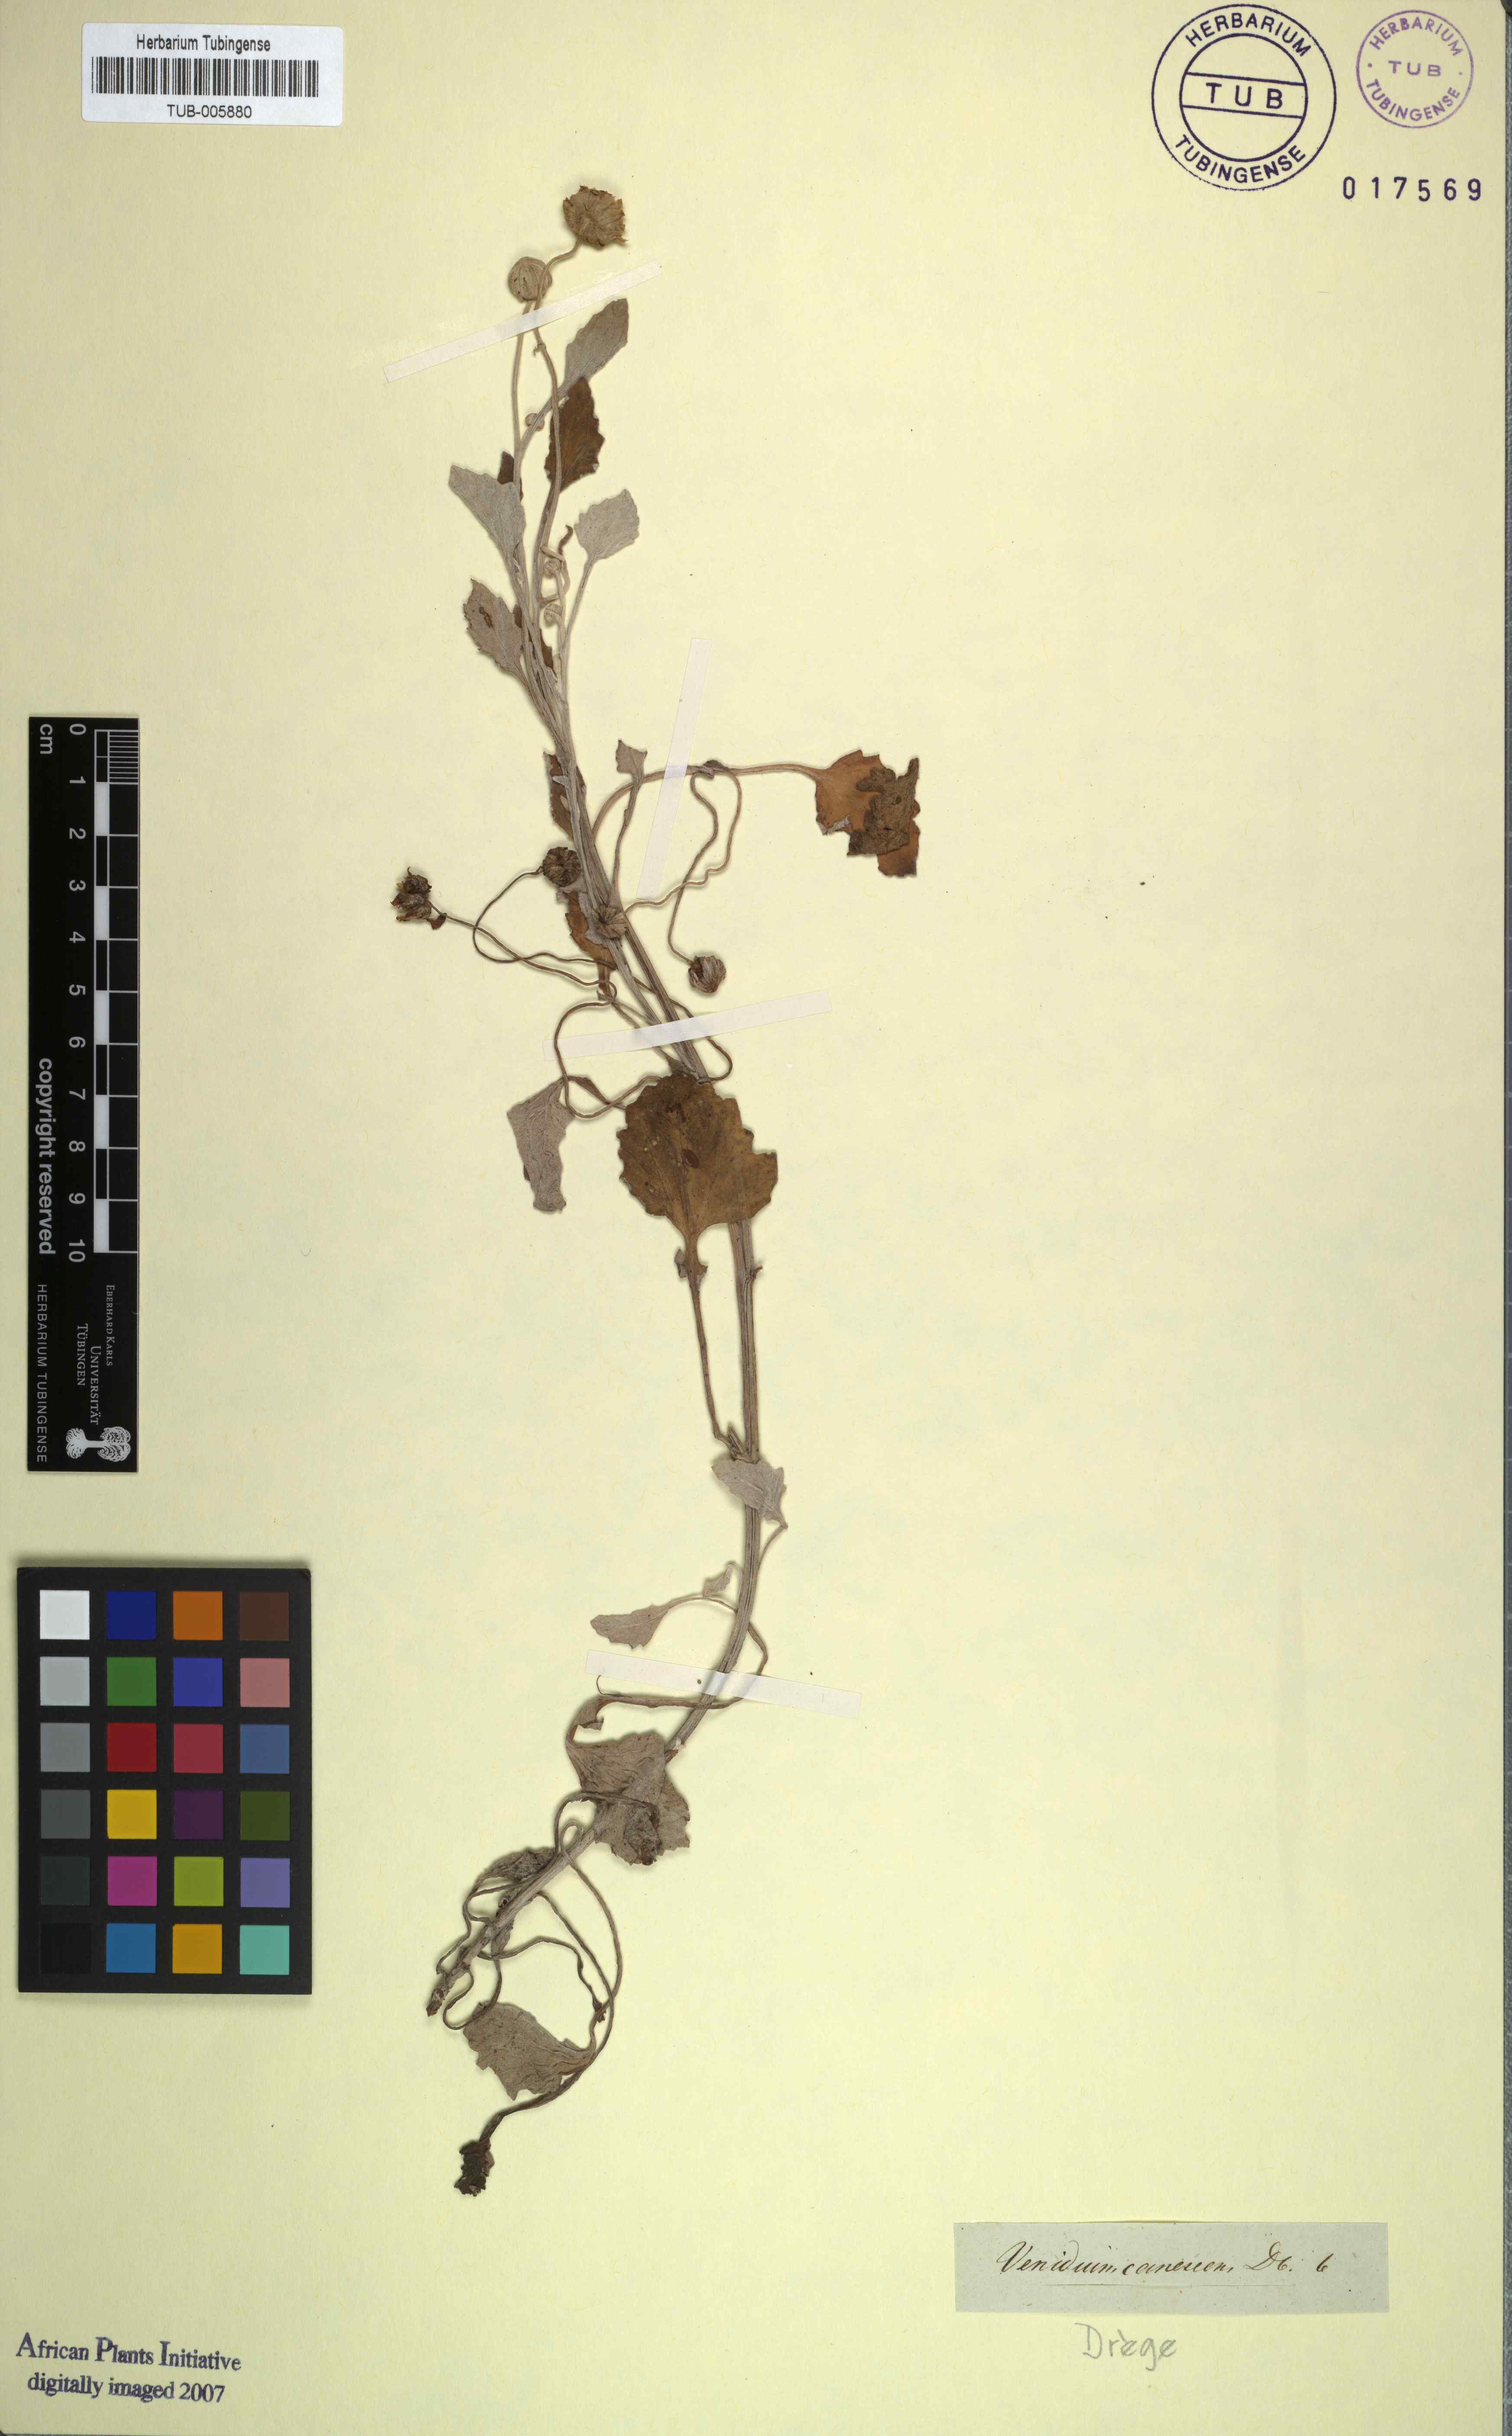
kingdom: Plantae
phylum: Tracheophyta
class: Magnoliopsida
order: Asterales
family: Asteraceae
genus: Arctotis
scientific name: Arctotis arctotoides
